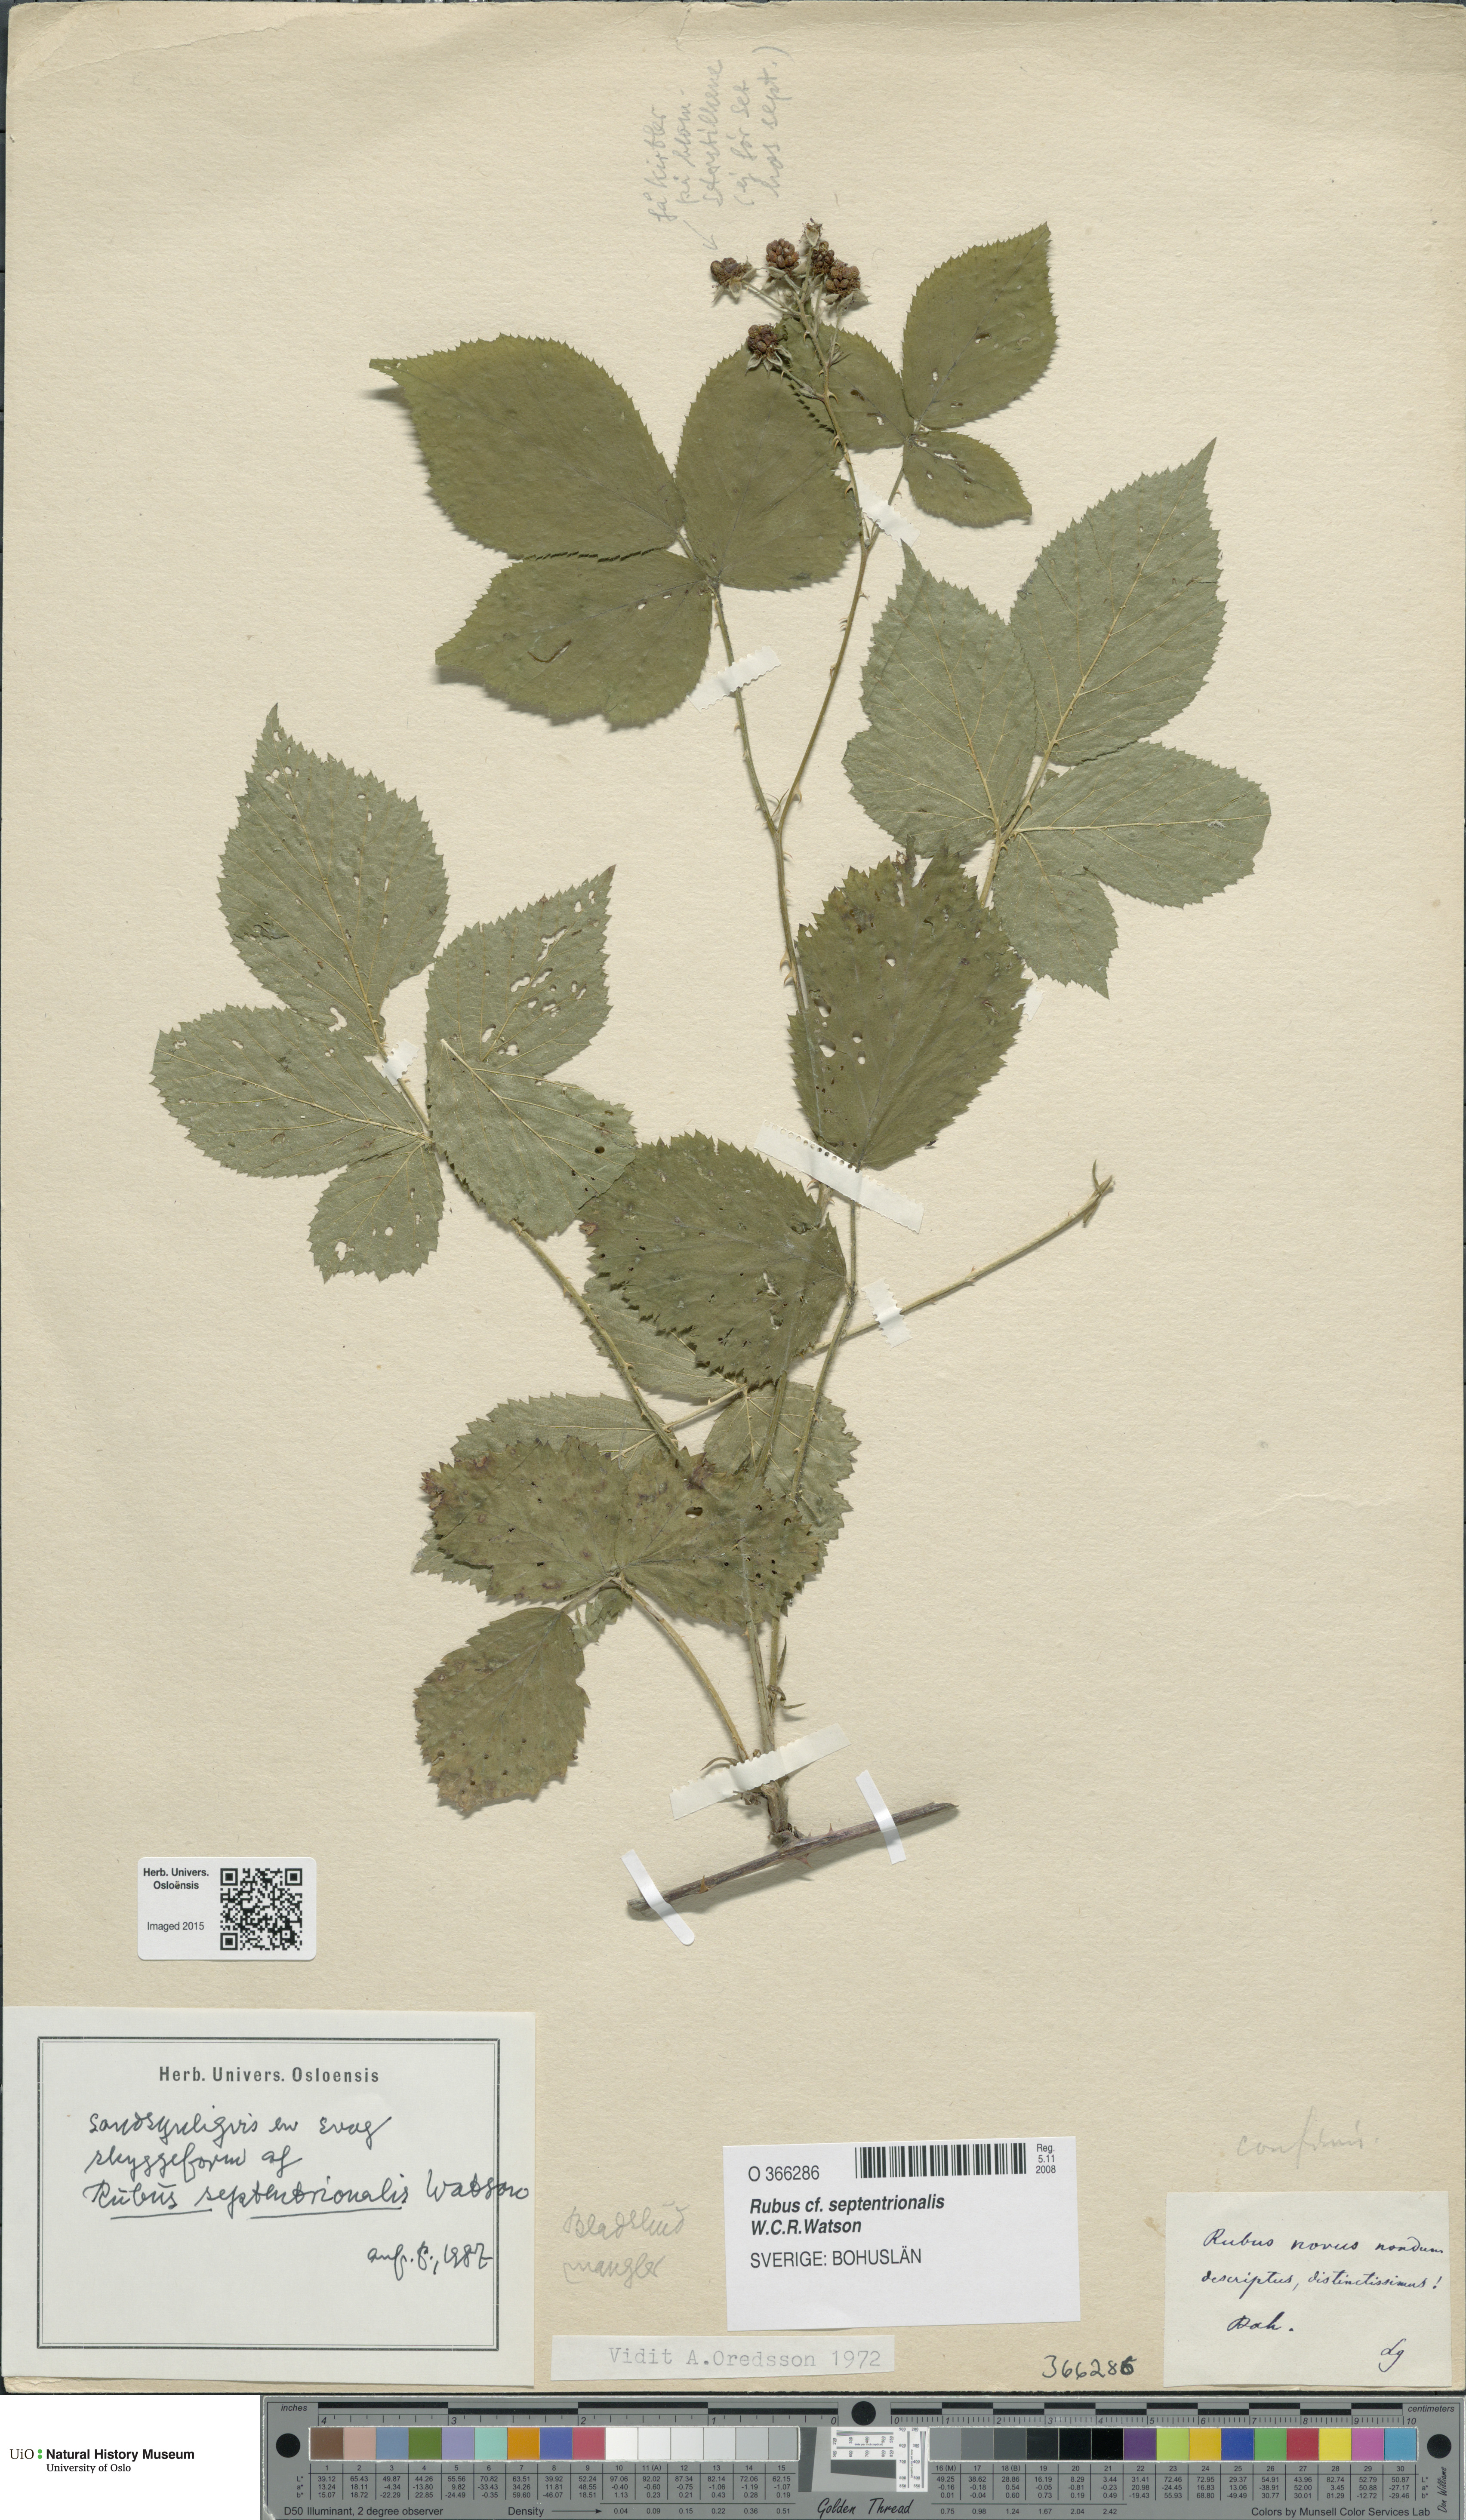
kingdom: Plantae
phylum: Tracheophyta
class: Magnoliopsida
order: Rosales
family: Rosaceae
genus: Rubus
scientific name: Rubus septentrionalis
